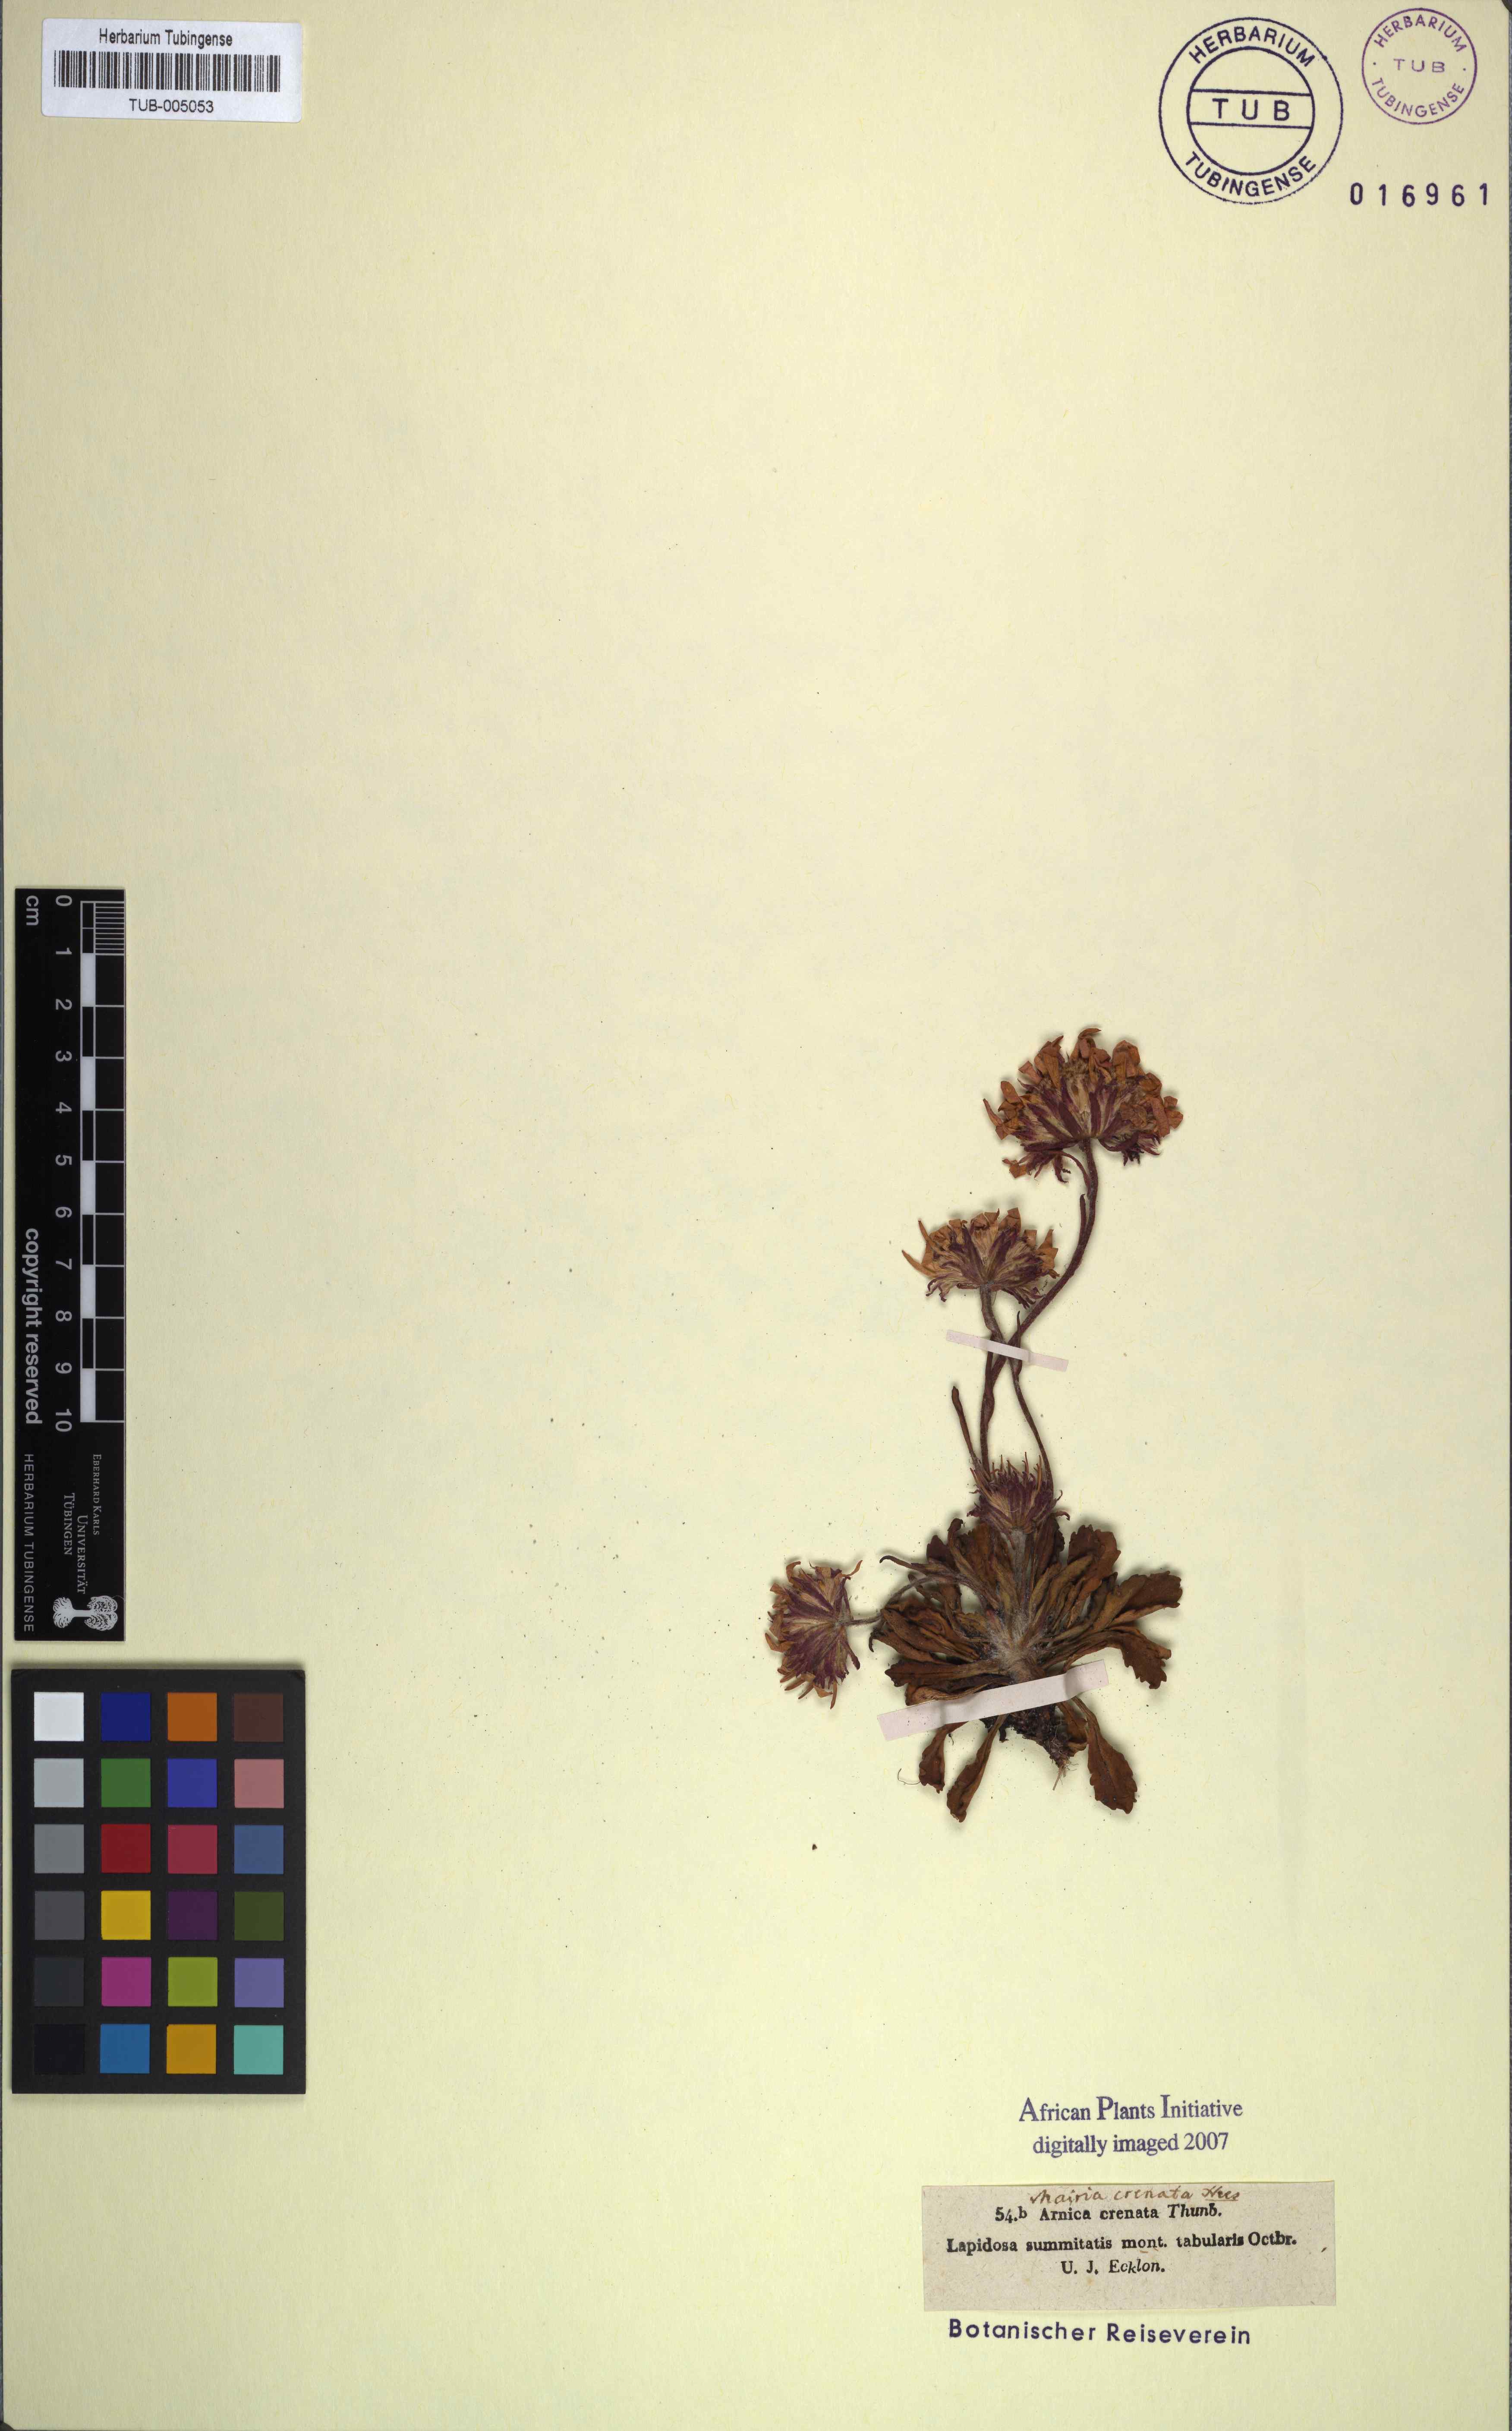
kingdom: Plantae
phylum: Tracheophyta
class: Magnoliopsida
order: Asterales
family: Asteraceae
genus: Zyrphelis
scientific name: Zyrphelis crenata
